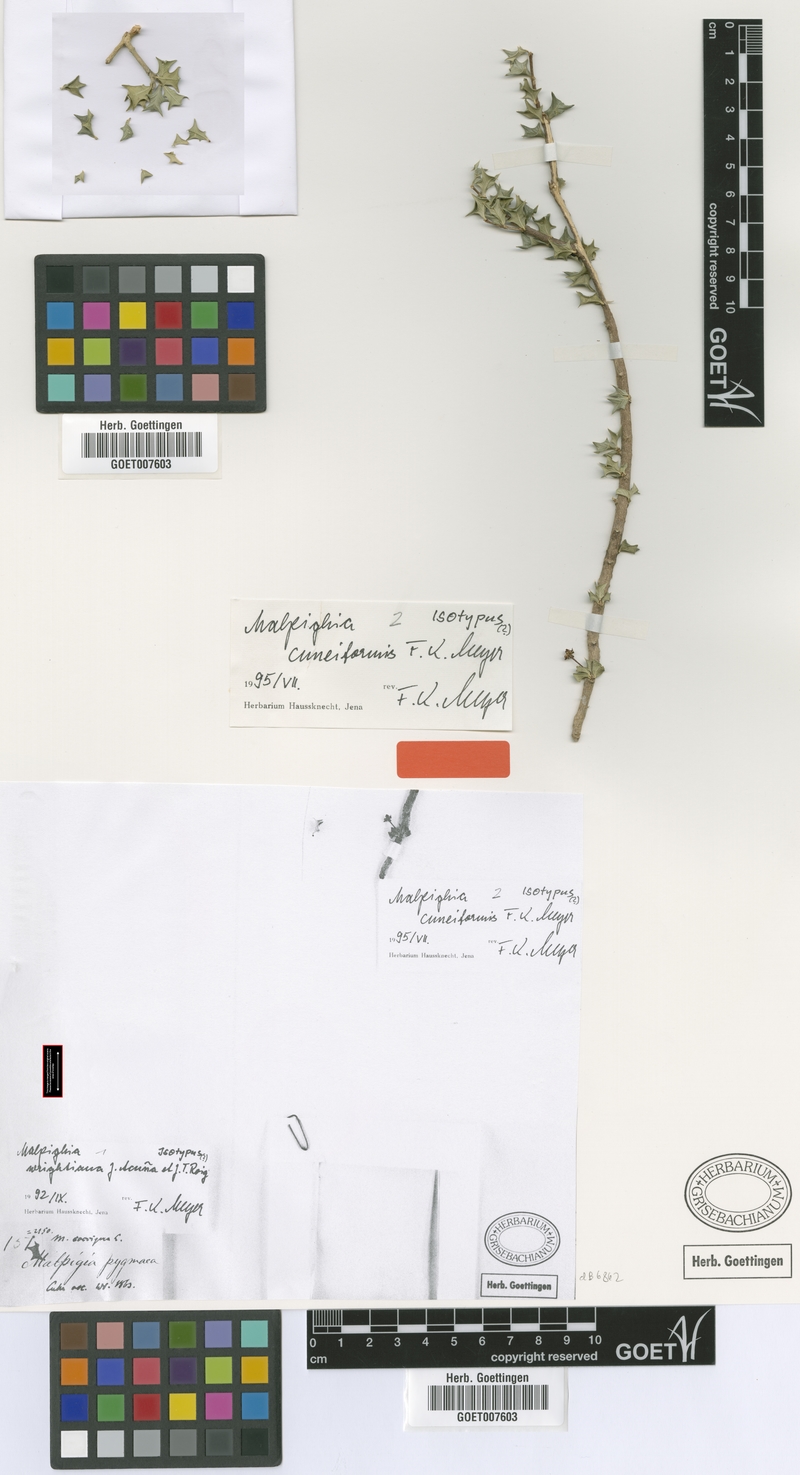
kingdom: Plantae
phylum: Tracheophyta
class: Magnoliopsida
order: Malpighiales
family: Malpighiaceae
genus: Malpighia
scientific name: Malpighia apiculata
